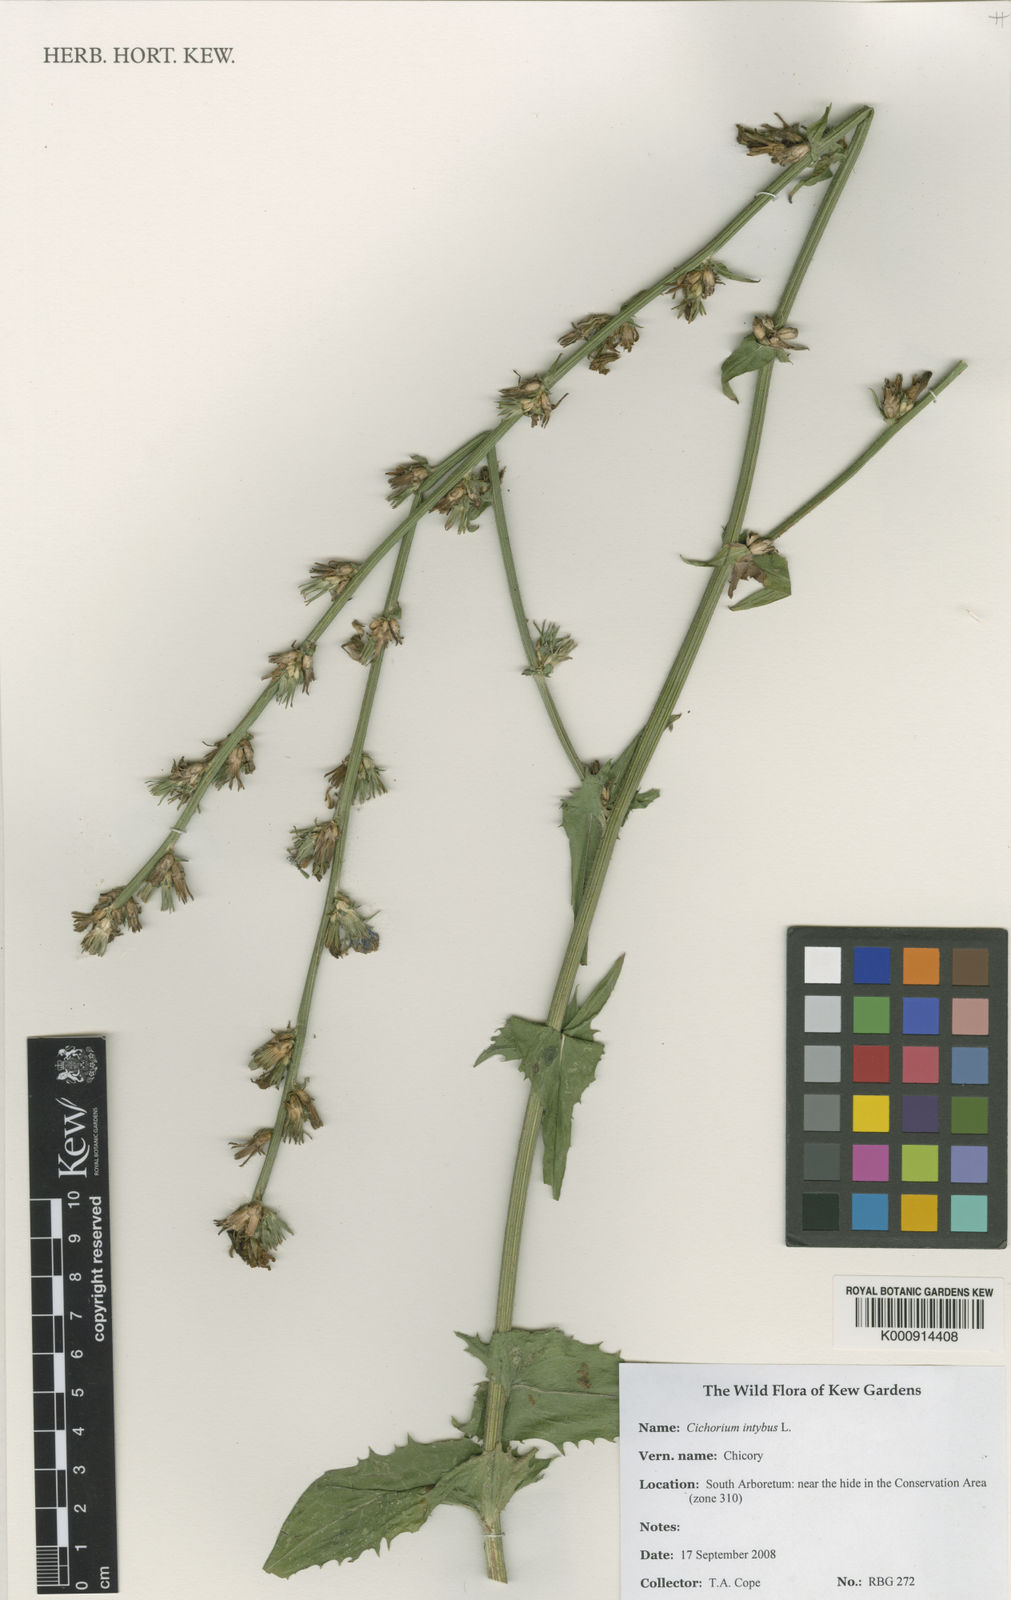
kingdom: Plantae
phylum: Tracheophyta
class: Magnoliopsida
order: Asterales
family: Asteraceae
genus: Cichorium
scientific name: Cichorium intybus
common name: Chicory
